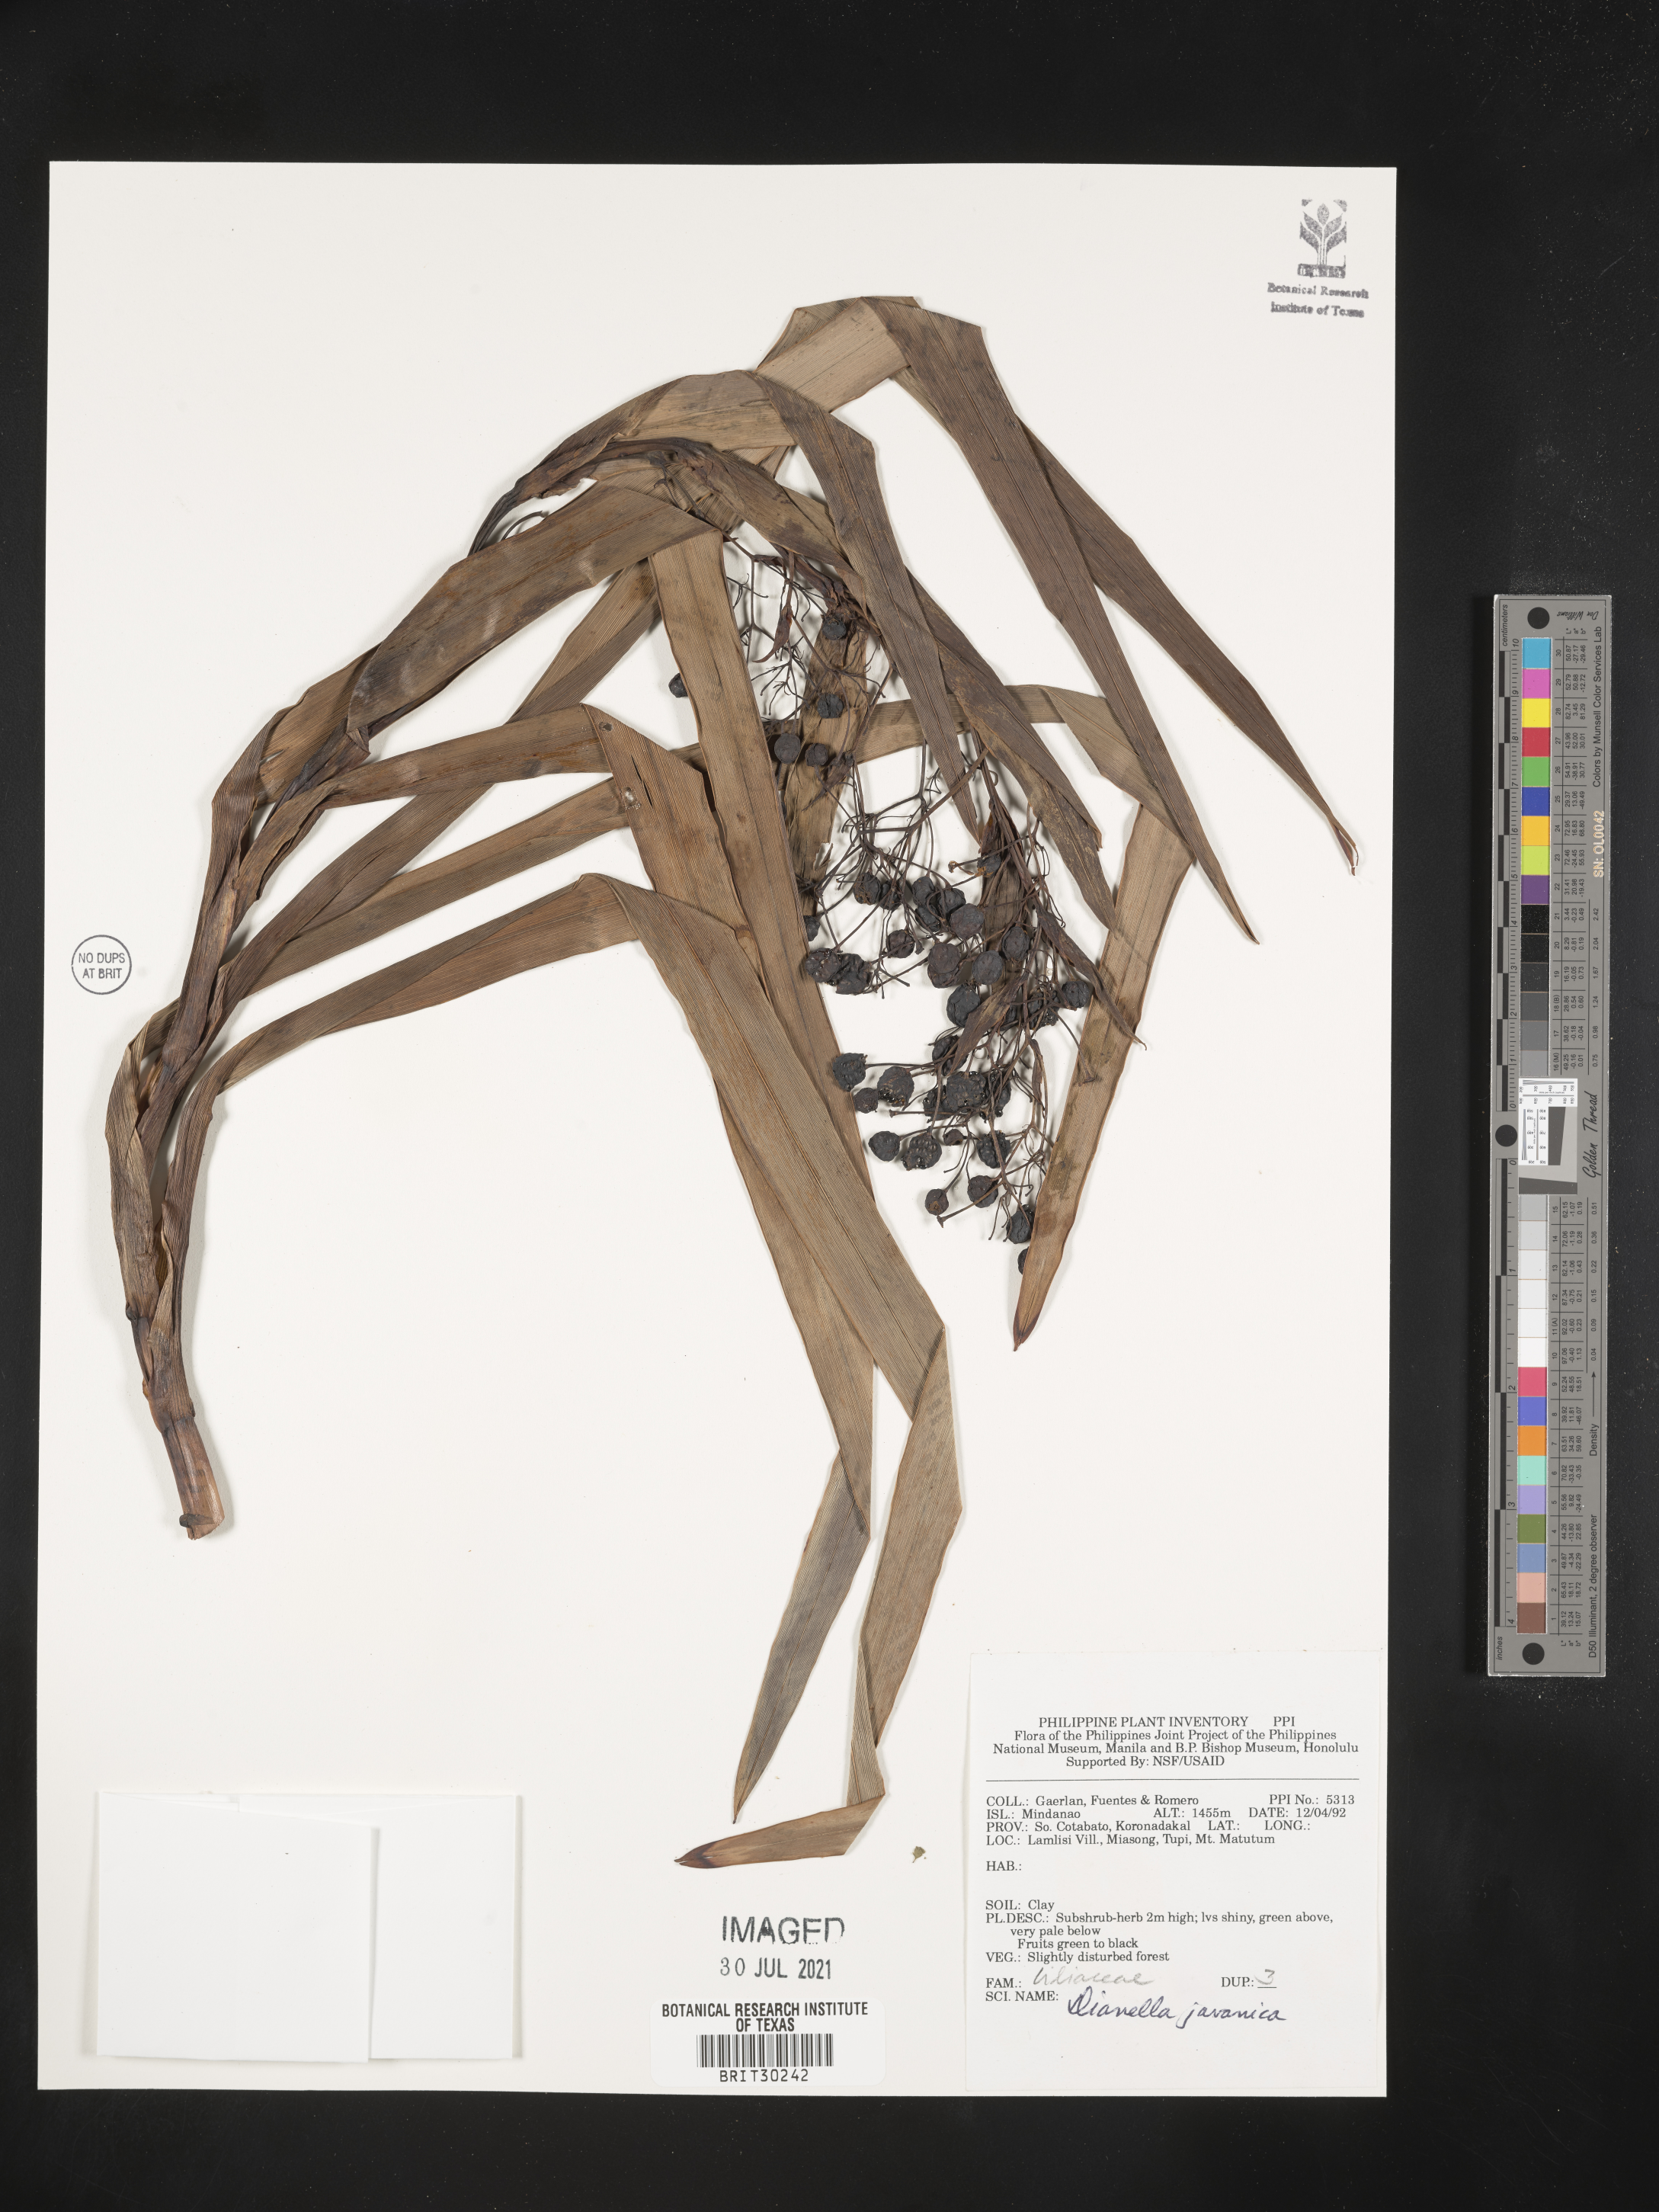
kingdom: Plantae
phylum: Tracheophyta
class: Liliopsida
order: Asparagales
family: Asphodelaceae
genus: Rhuacophila
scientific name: Rhuacophila javanica
